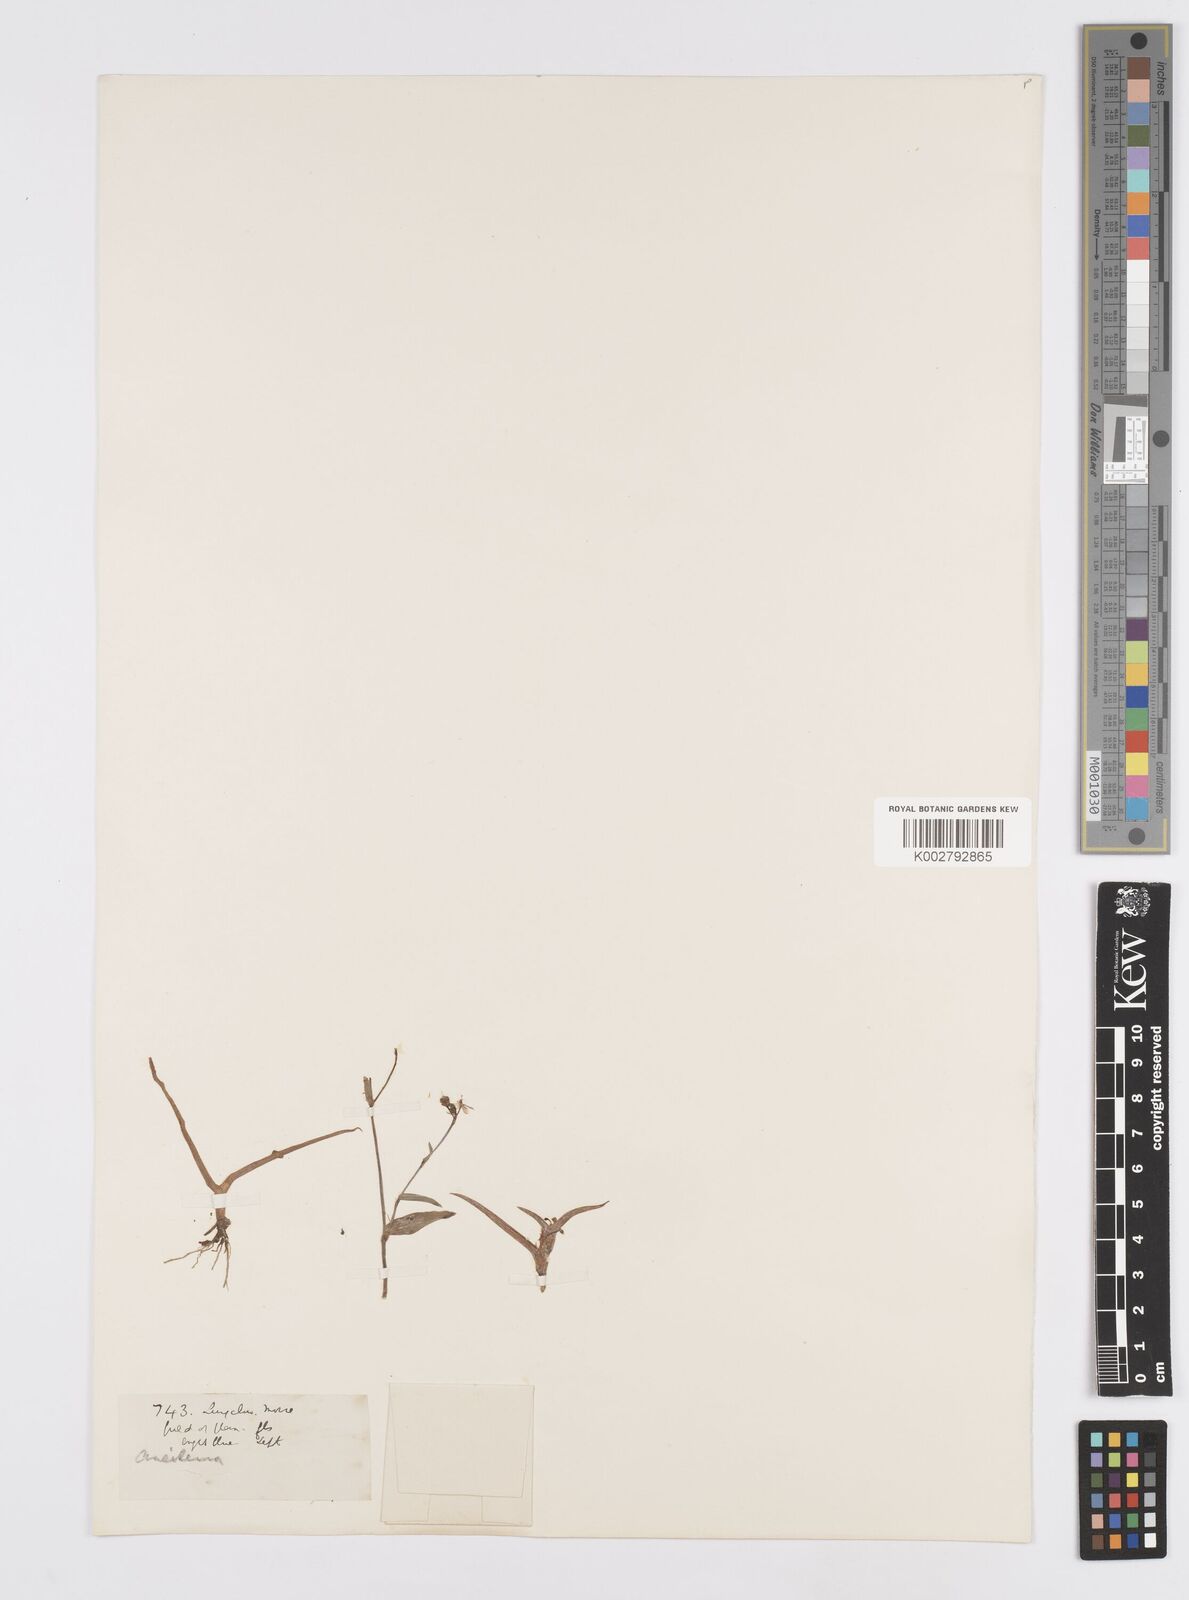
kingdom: Plantae
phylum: Tracheophyta
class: Liliopsida
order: Commelinales
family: Commelinaceae
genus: Murdannia
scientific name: Murdannia
